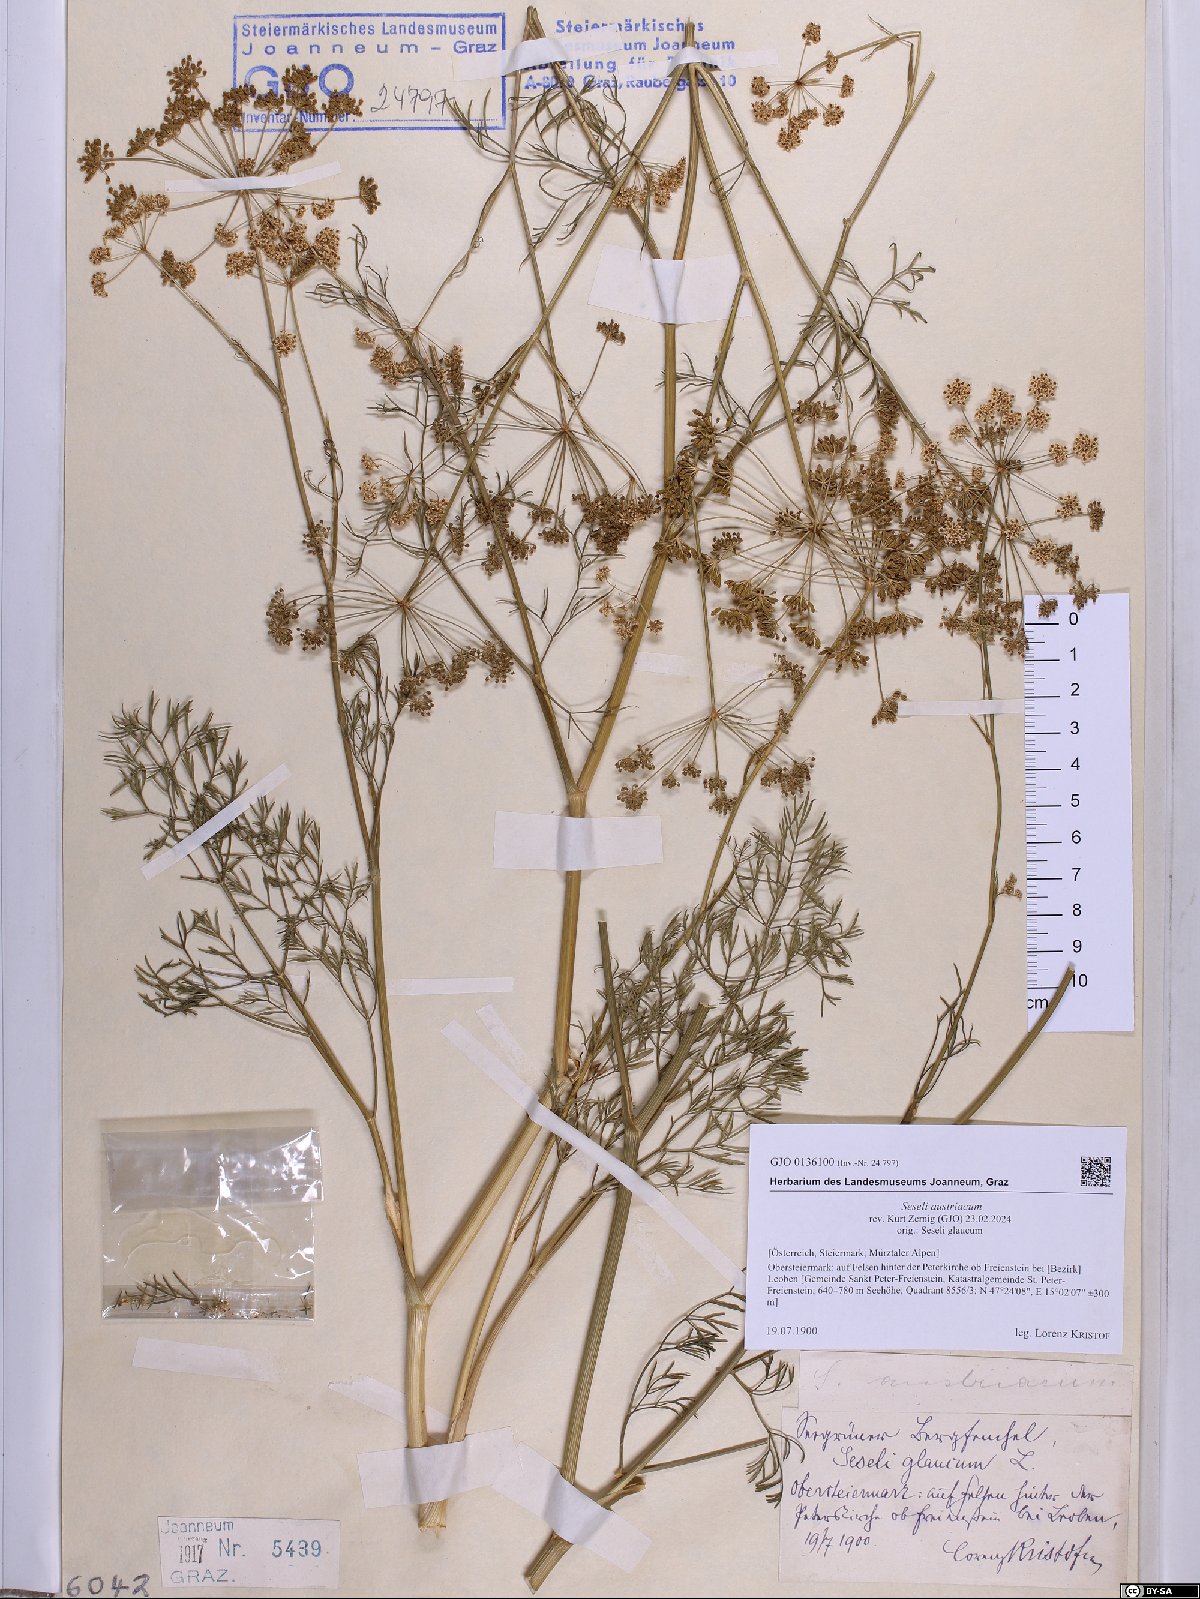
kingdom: Plantae
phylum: Tracheophyta
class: Magnoliopsida
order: Apiales
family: Apiaceae
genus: Seseli
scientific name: Seseli austriacum
